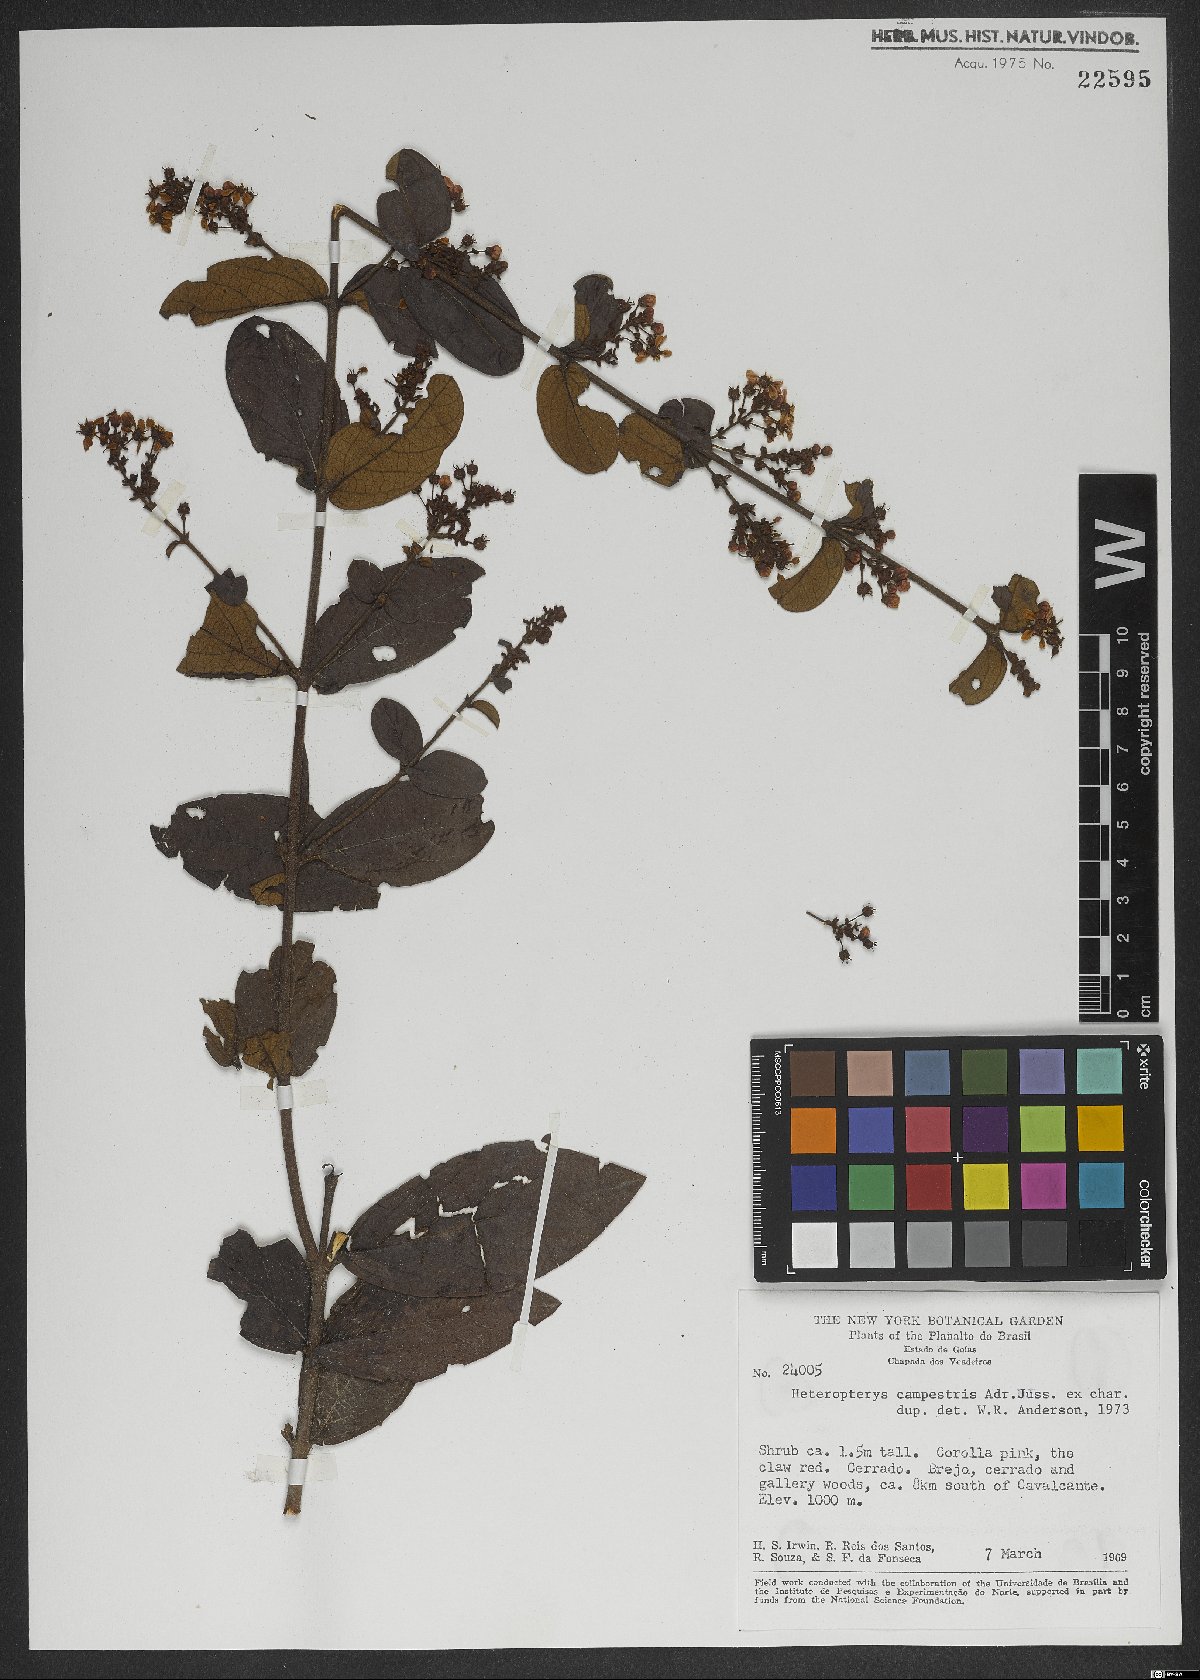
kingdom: Plantae
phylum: Tracheophyta
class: Magnoliopsida
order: Malpighiales
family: Malpighiaceae
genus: Heteropterys
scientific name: Heteropterys campestris
